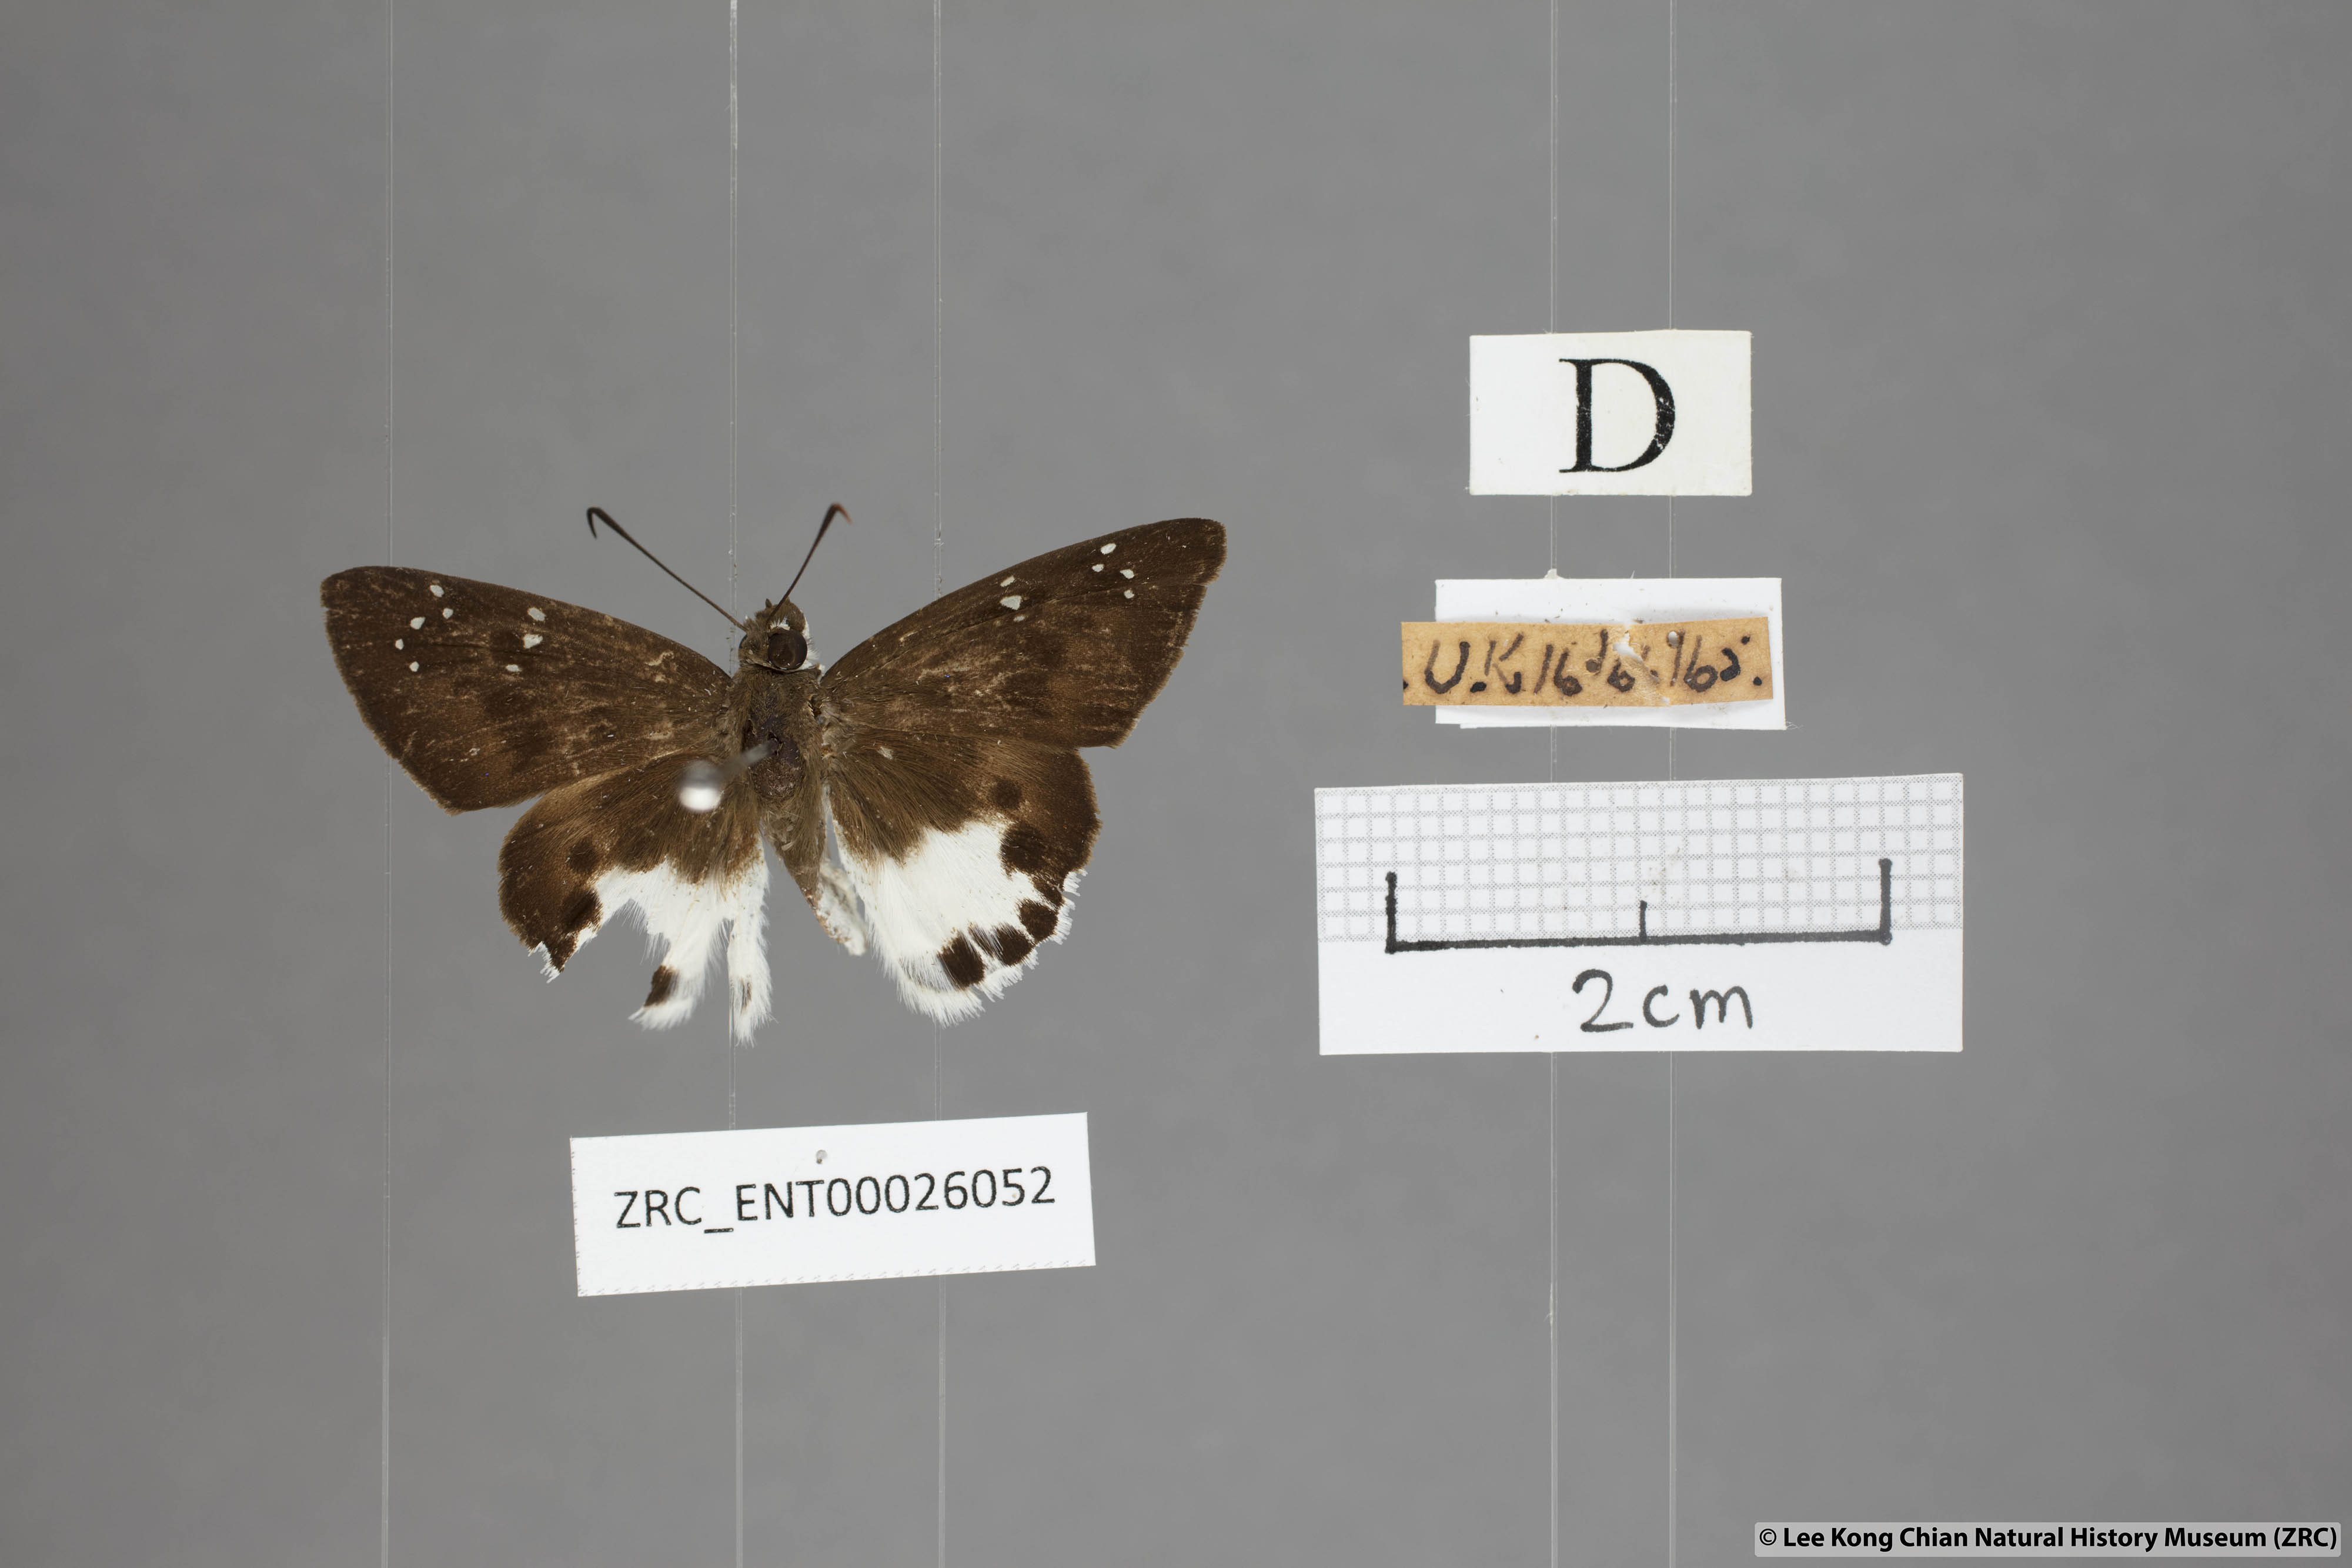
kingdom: Animalia
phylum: Arthropoda
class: Insecta
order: Lepidoptera
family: Hesperiidae
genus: Tagiades
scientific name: Tagiades litigiosa
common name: Water snow flat
